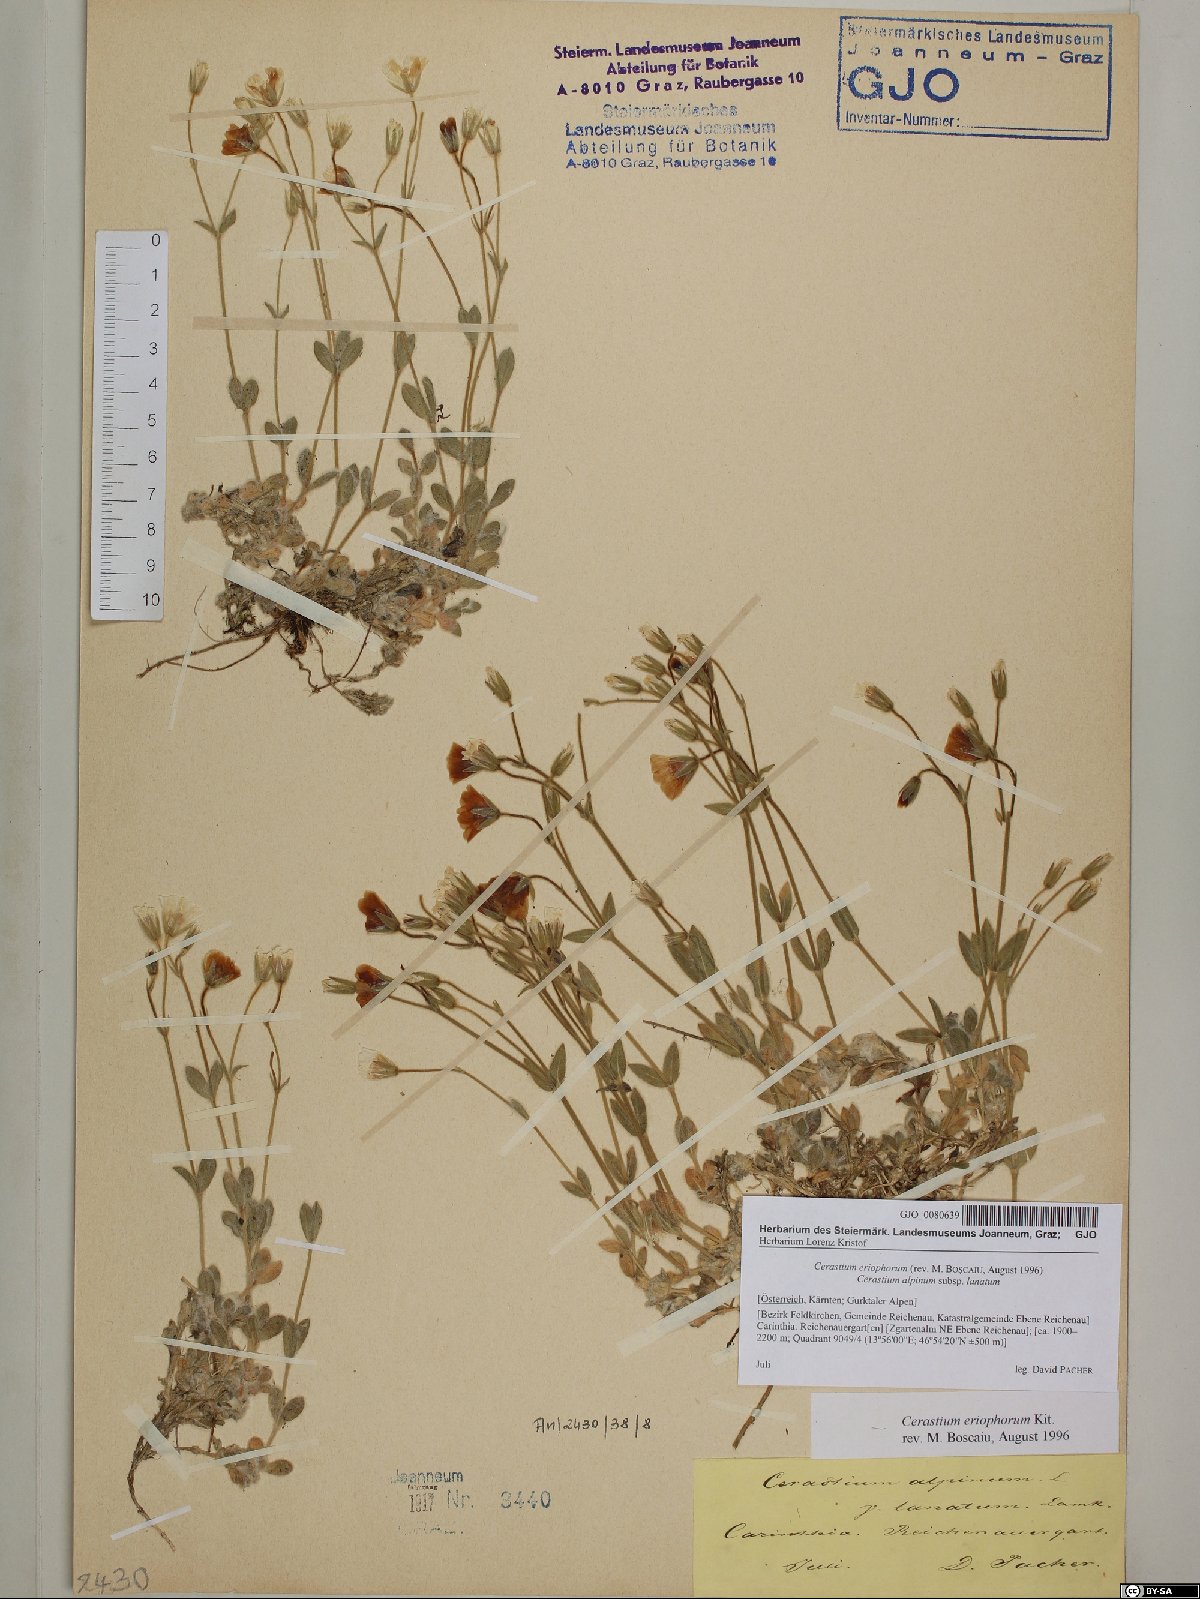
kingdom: Plantae
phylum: Tracheophyta
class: Magnoliopsida
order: Caryophyllales
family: Caryophyllaceae
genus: Cerastium
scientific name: Cerastium eriophorum
